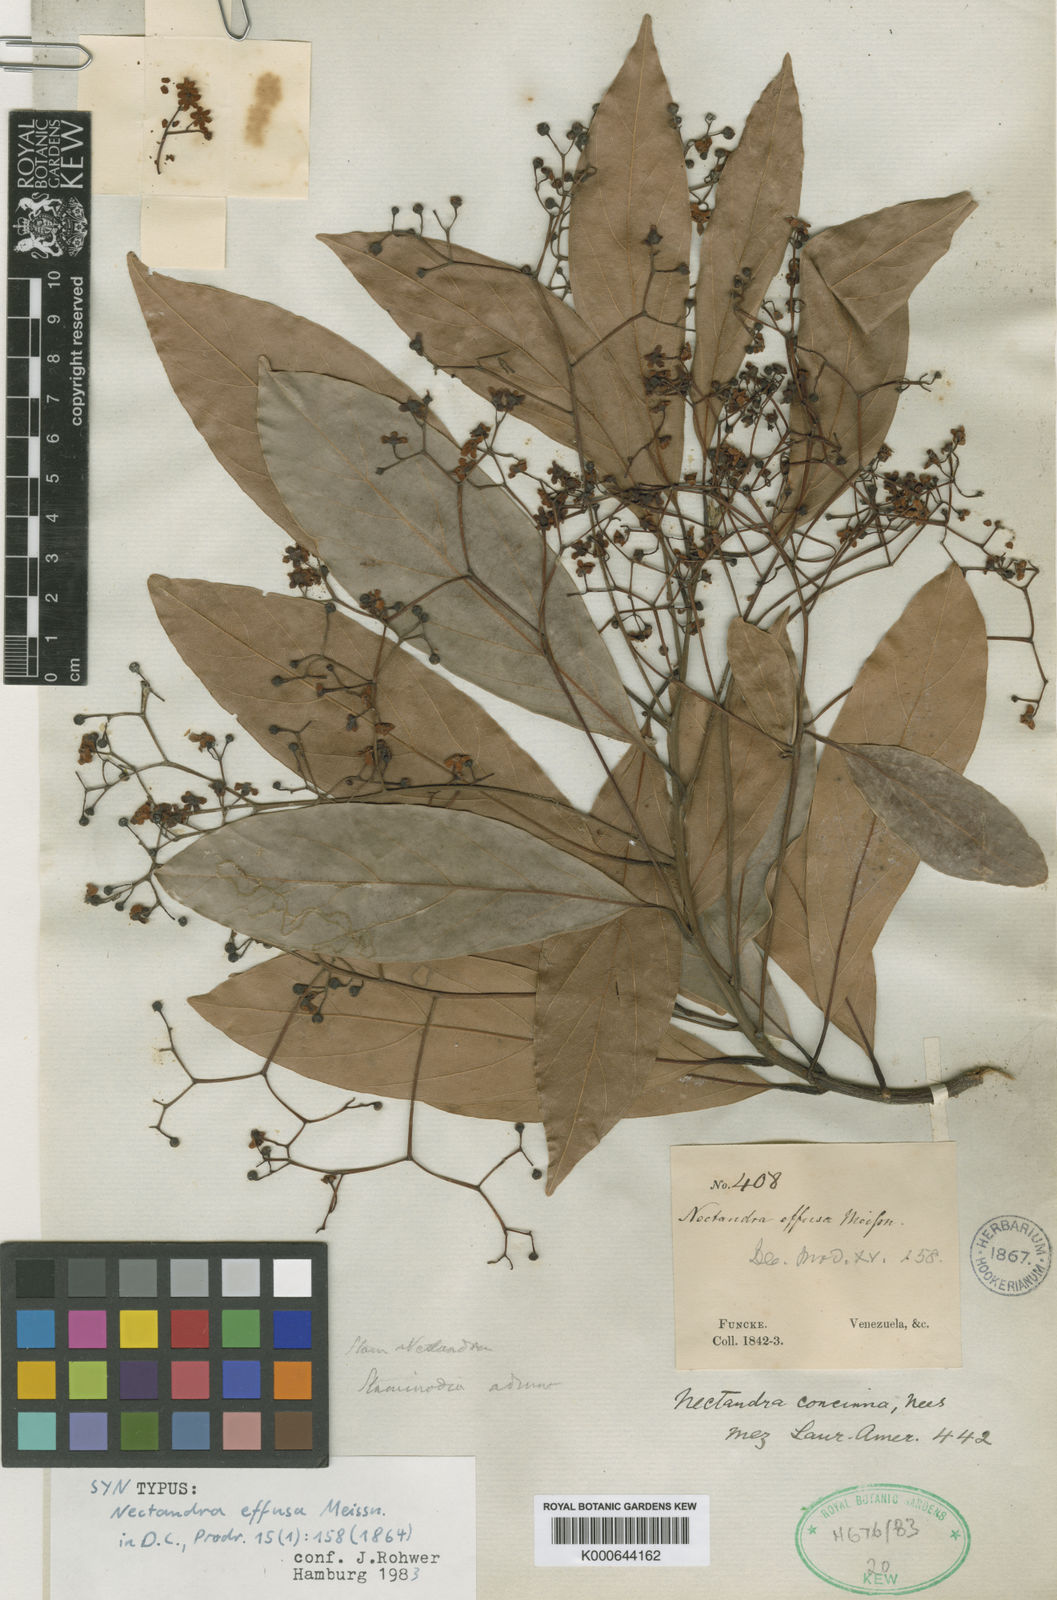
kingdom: Plantae
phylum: Tracheophyta
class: Magnoliopsida
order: Laurales
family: Lauraceae
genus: Nectandra
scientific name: Nectandra turbacensis
